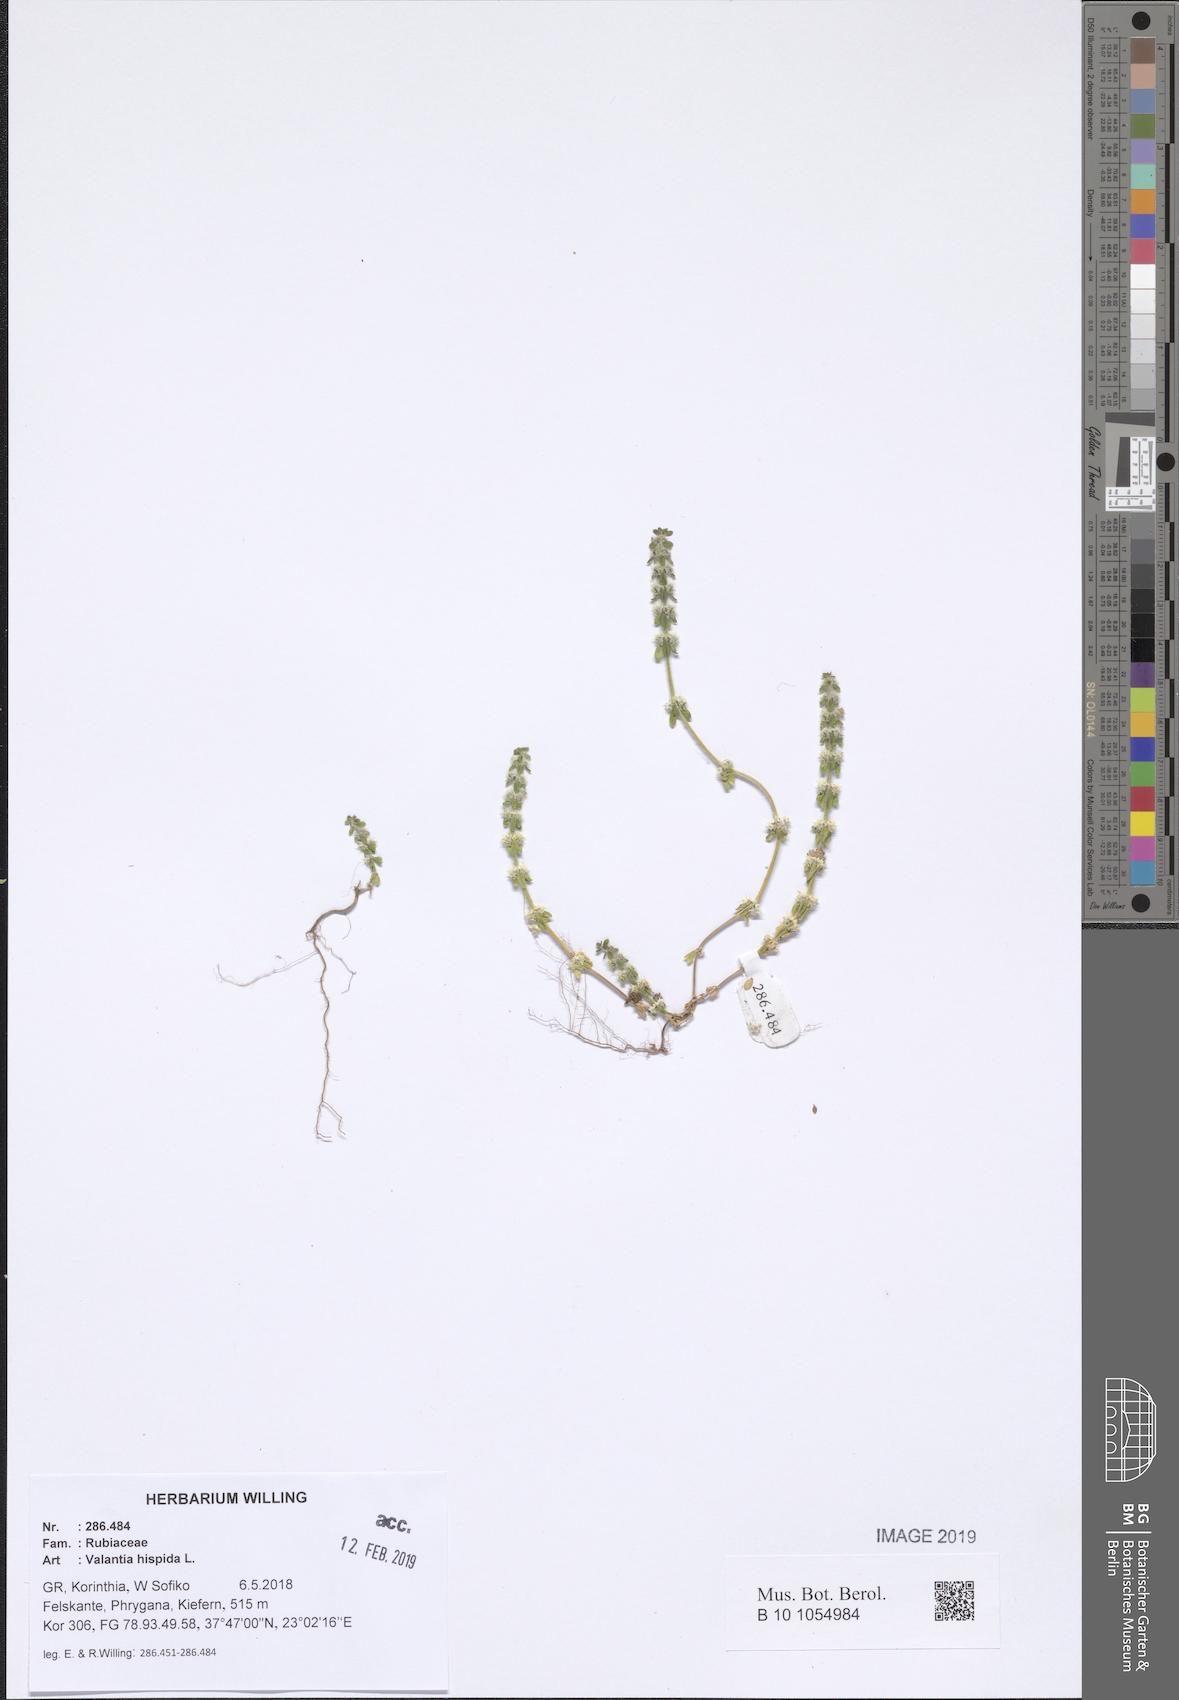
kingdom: Plantae
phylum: Tracheophyta
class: Magnoliopsida
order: Gentianales
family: Rubiaceae
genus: Valantia
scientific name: Valantia hispida
